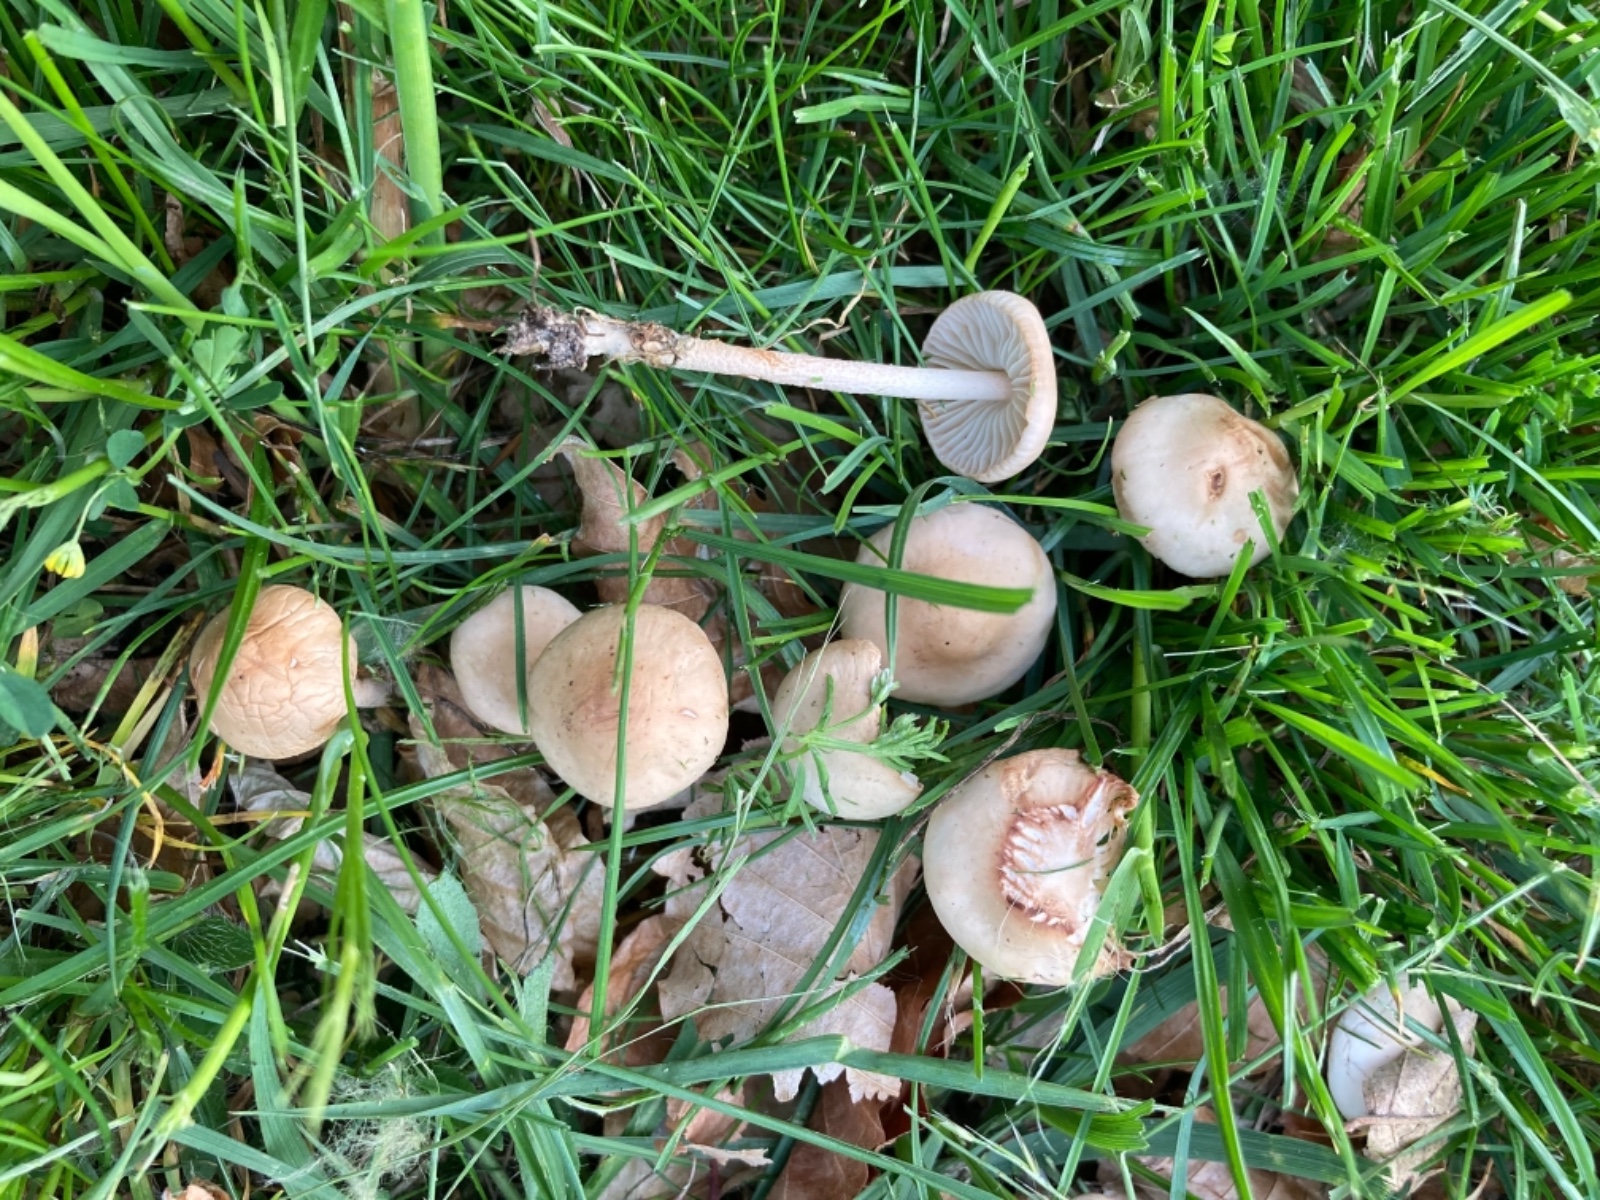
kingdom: Fungi
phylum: Basidiomycota
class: Agaricomycetes
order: Agaricales
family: Marasmiaceae
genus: Marasmius
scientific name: Marasmius oreades
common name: elledans-bruskhat
